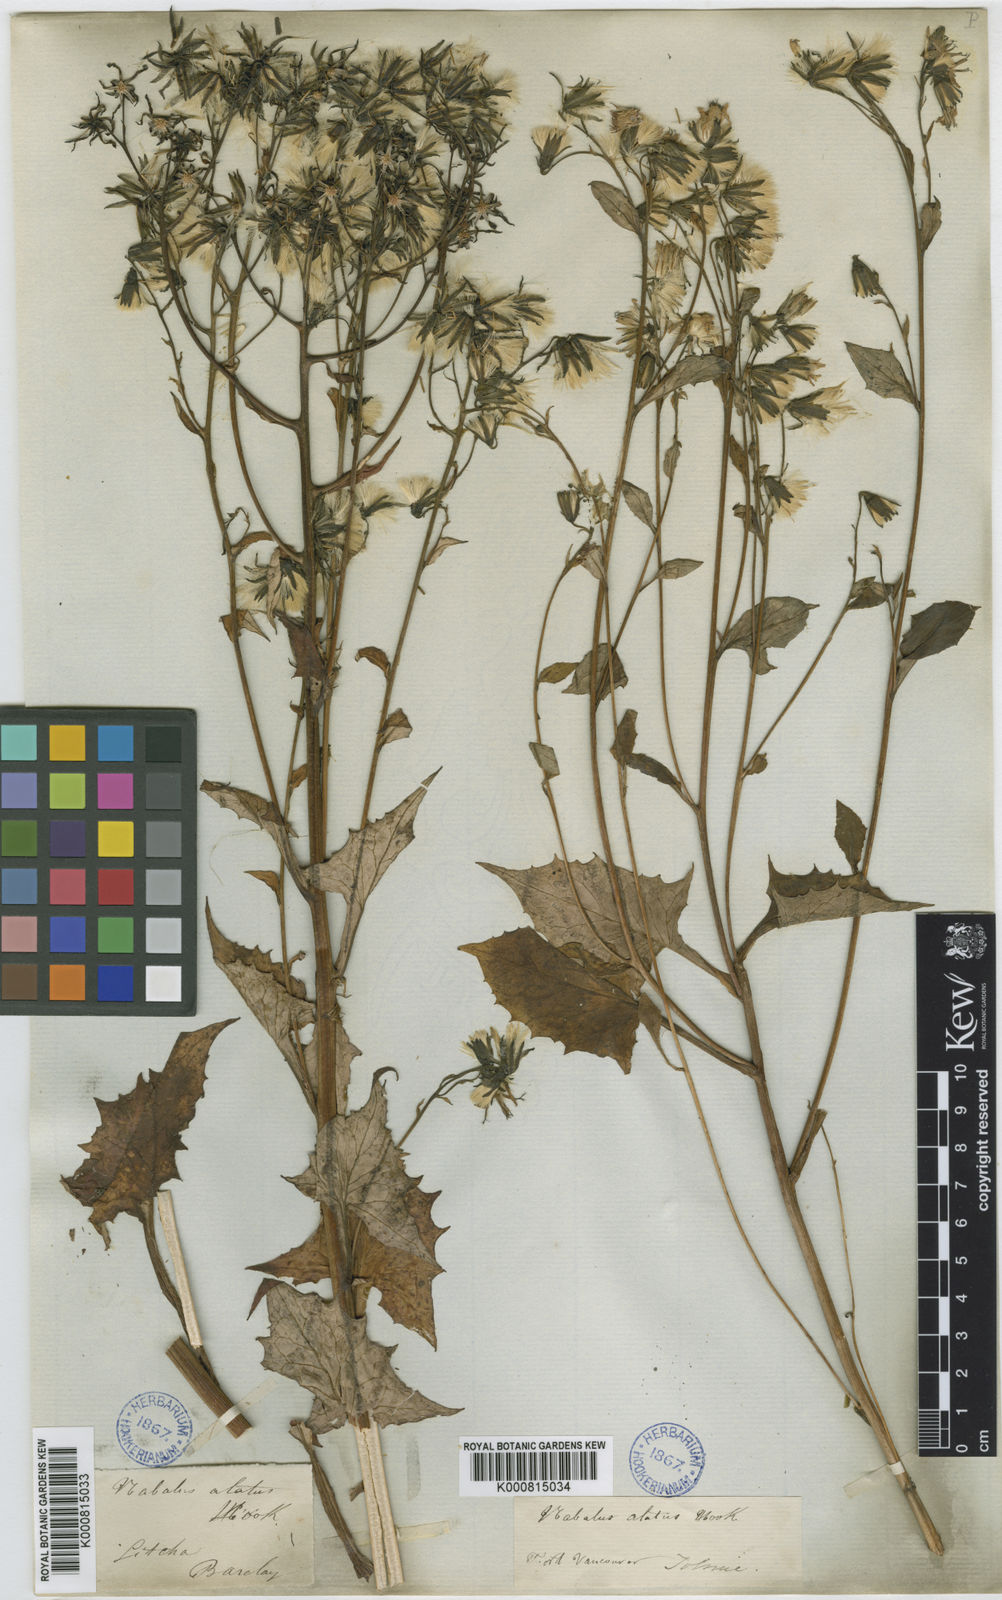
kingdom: Plantae
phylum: Tracheophyta
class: Magnoliopsida
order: Asterales
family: Asteraceae
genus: Nabalus
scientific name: Nabalus hastatus
